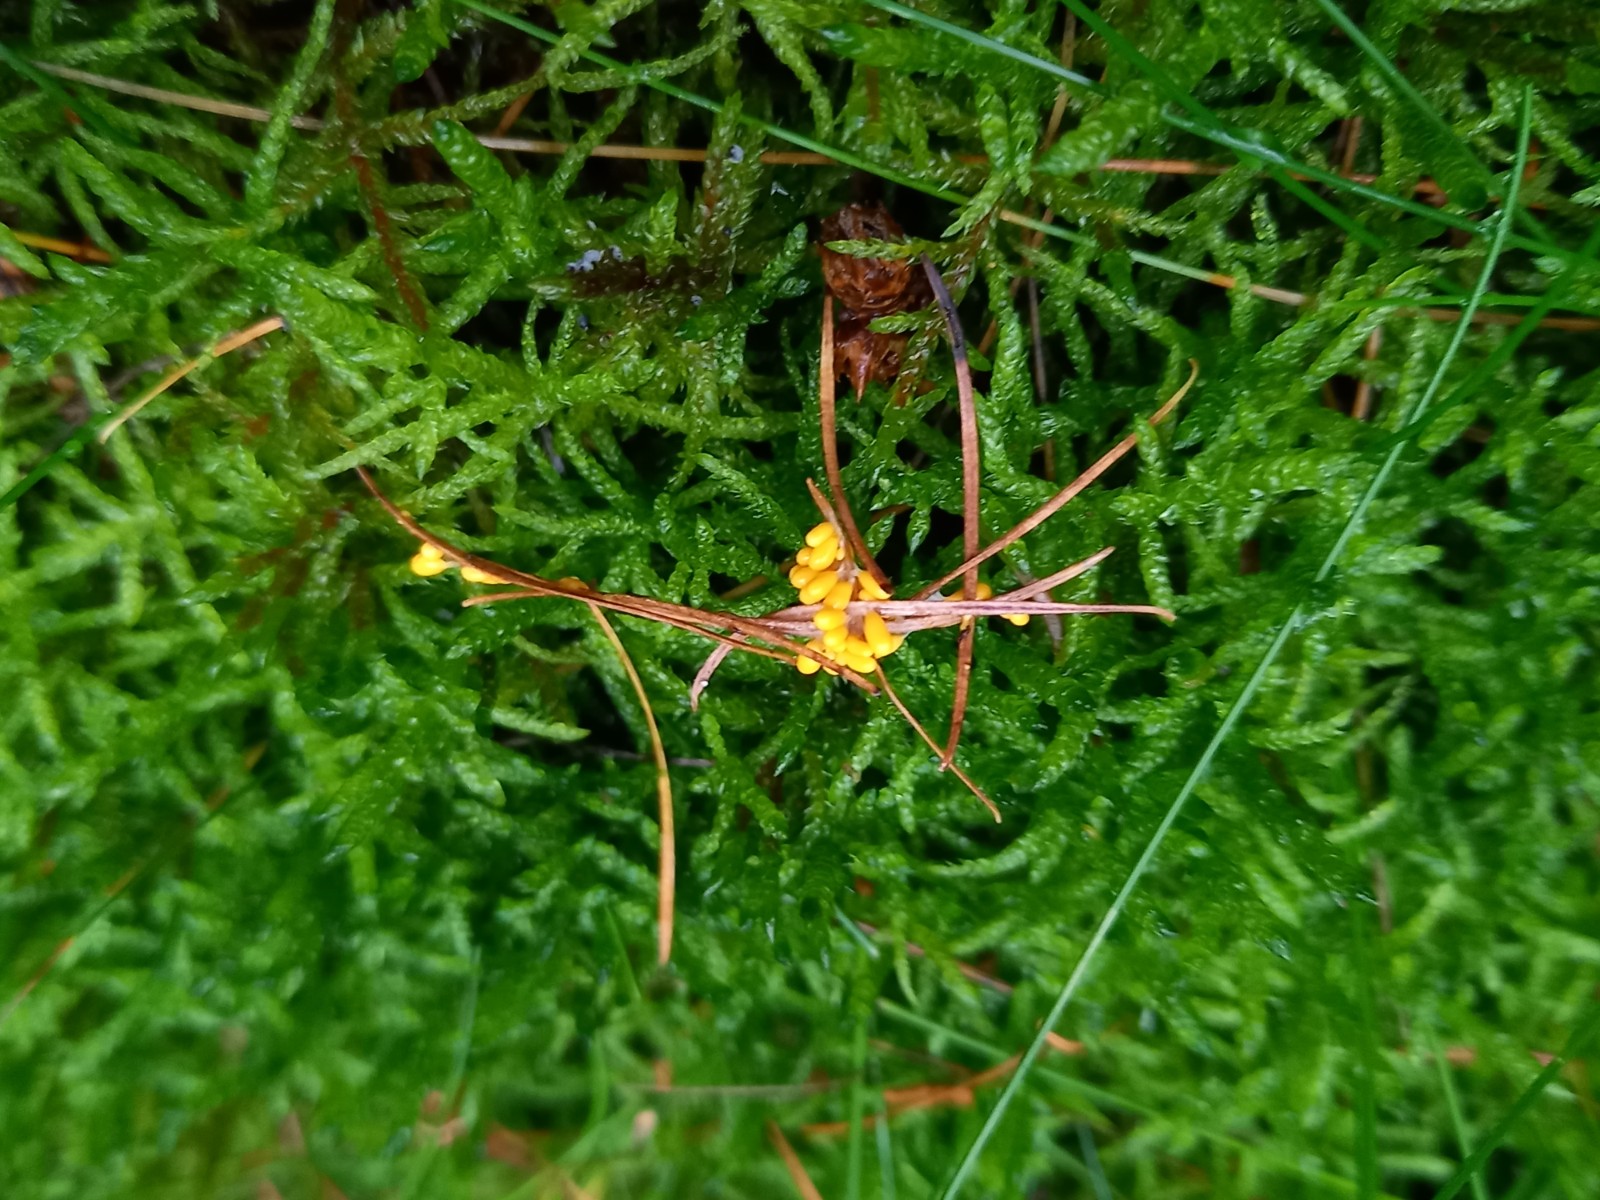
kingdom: Protozoa
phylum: Mycetozoa
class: Myxomycetes
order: Physarales
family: Physaraceae
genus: Leocarpus
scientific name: Leocarpus fragilis
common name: poleret glatfrø
